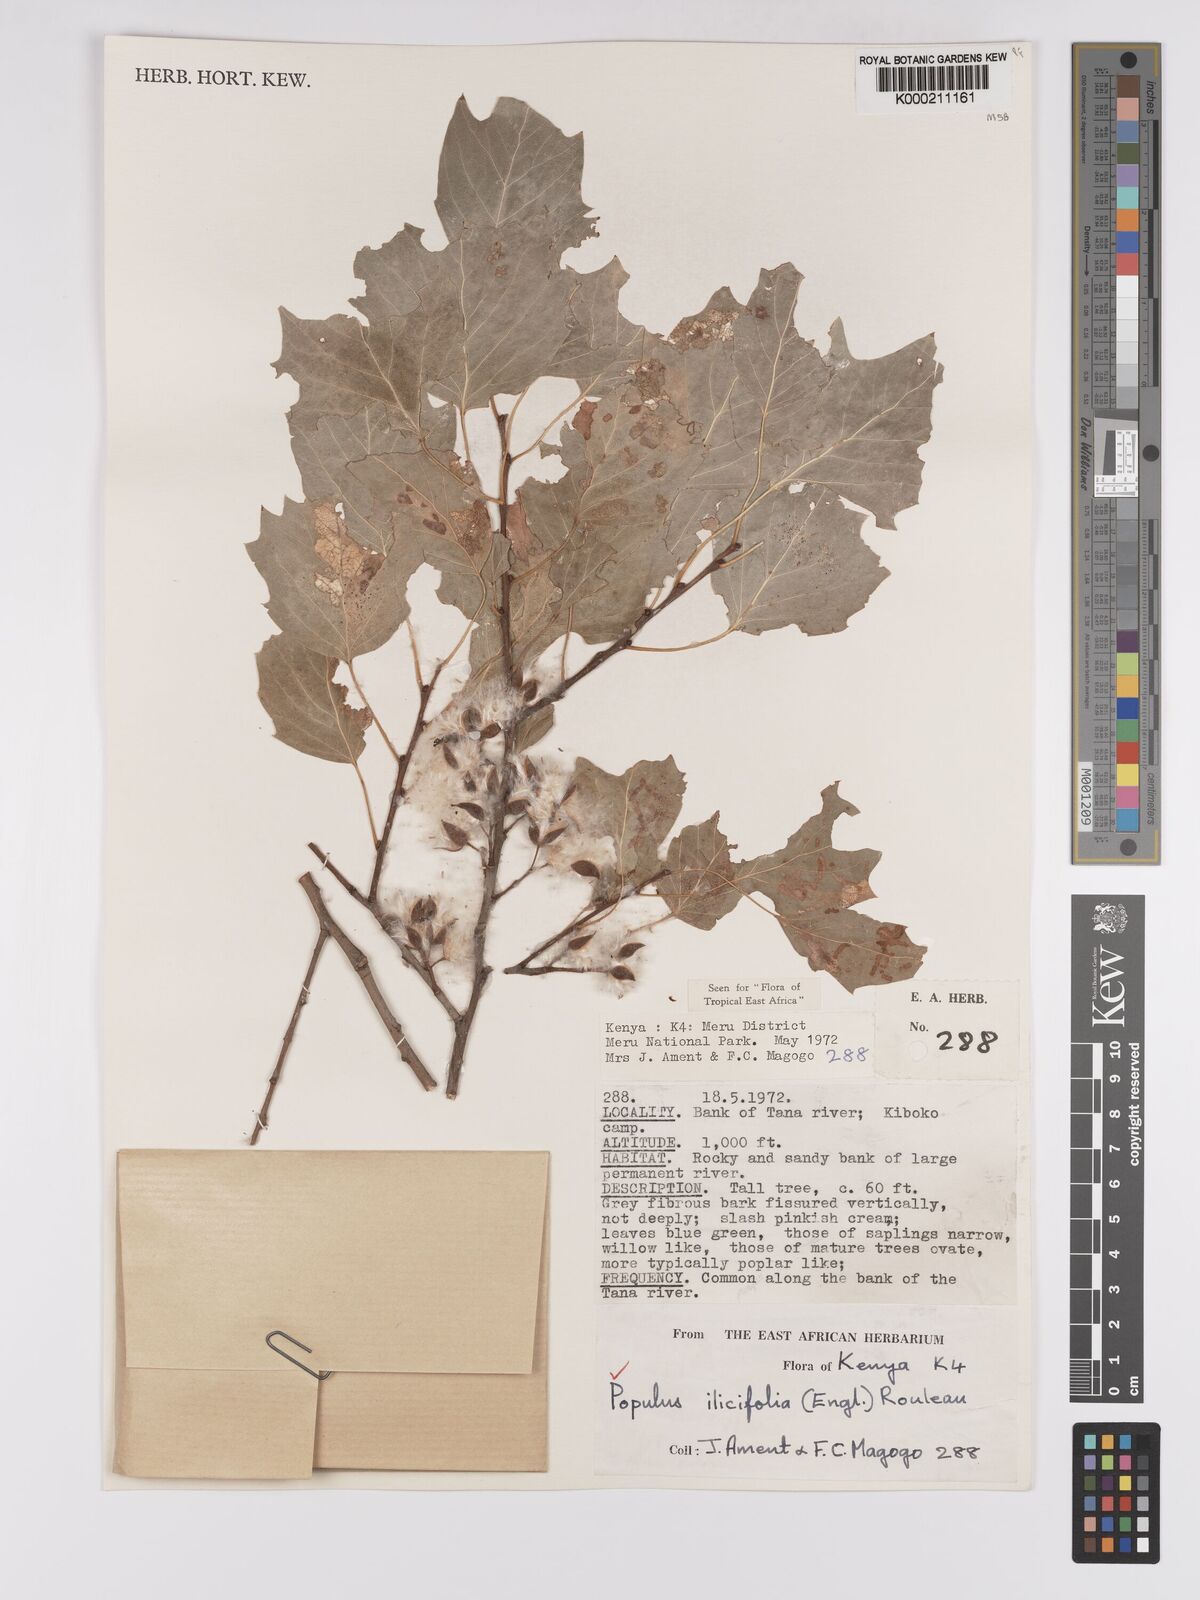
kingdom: Plantae
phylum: Tracheophyta
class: Magnoliopsida
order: Malpighiales
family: Salicaceae
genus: Populus
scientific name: Populus ilicifolia
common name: Tana river poplar
